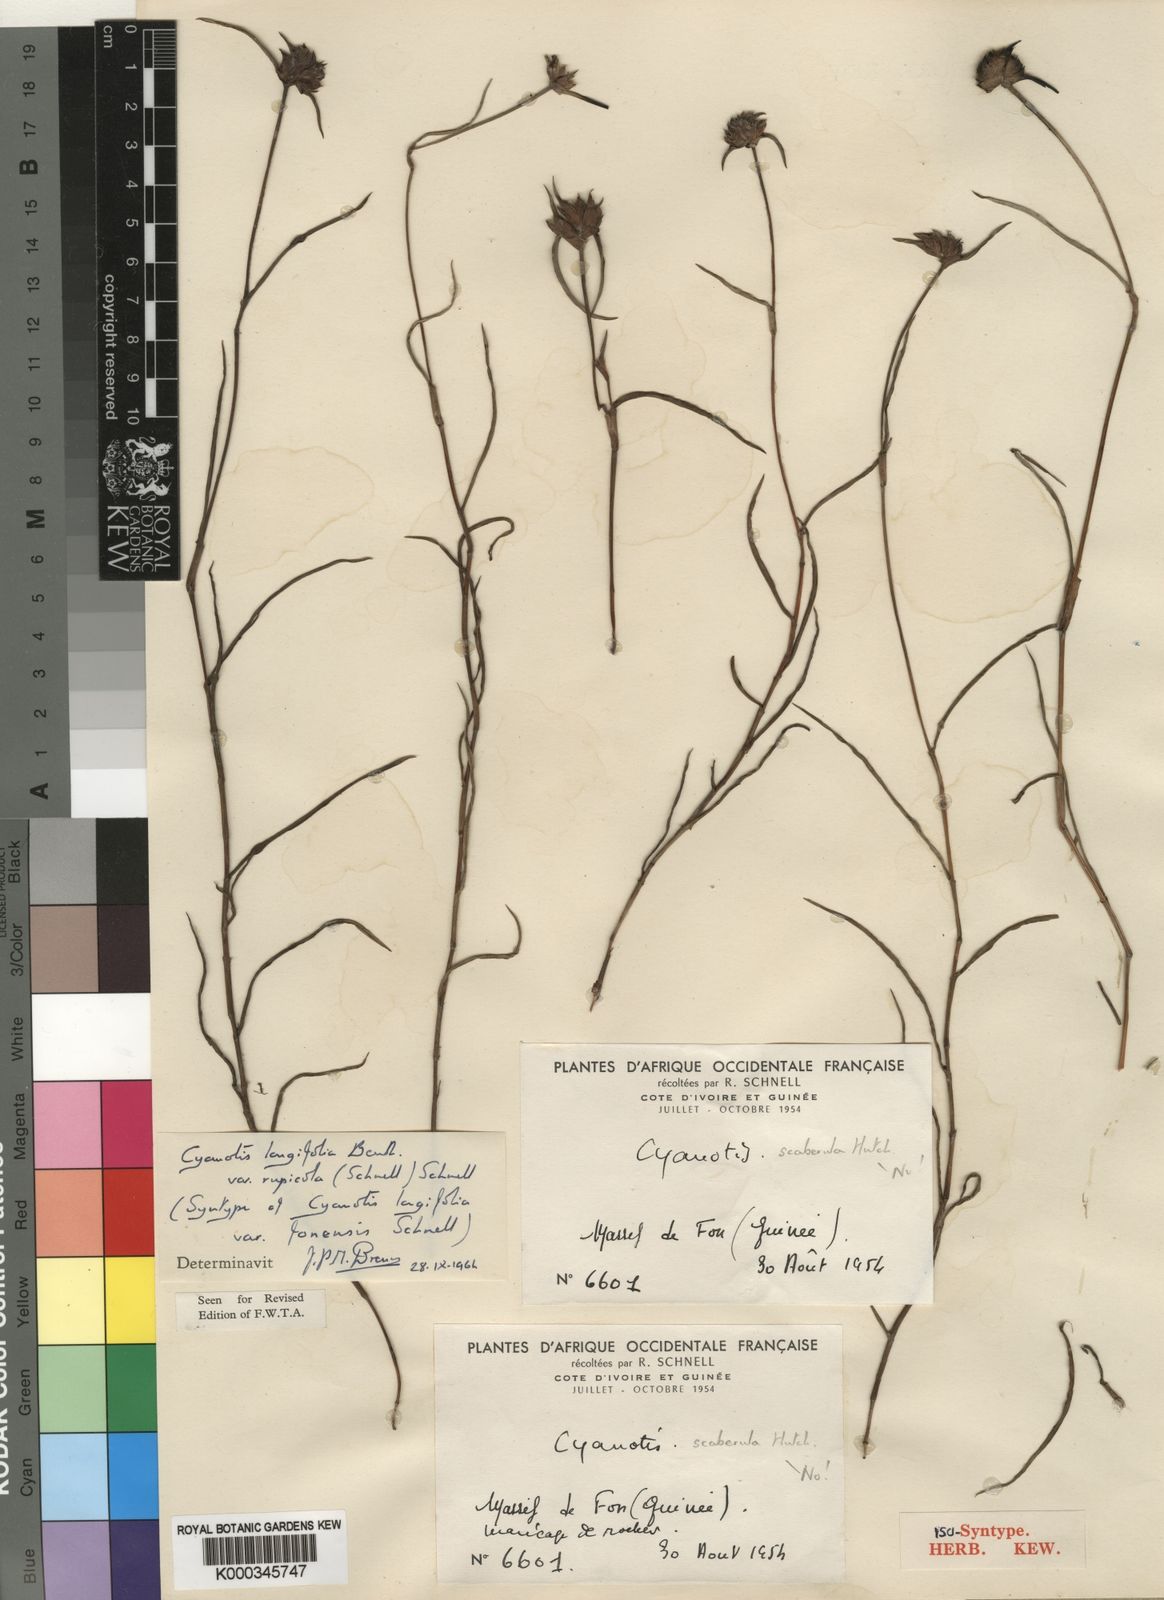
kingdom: Plantae
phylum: Tracheophyta
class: Liliopsida
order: Commelinales
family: Commelinaceae
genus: Cyanotis
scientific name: Cyanotis longifolia
